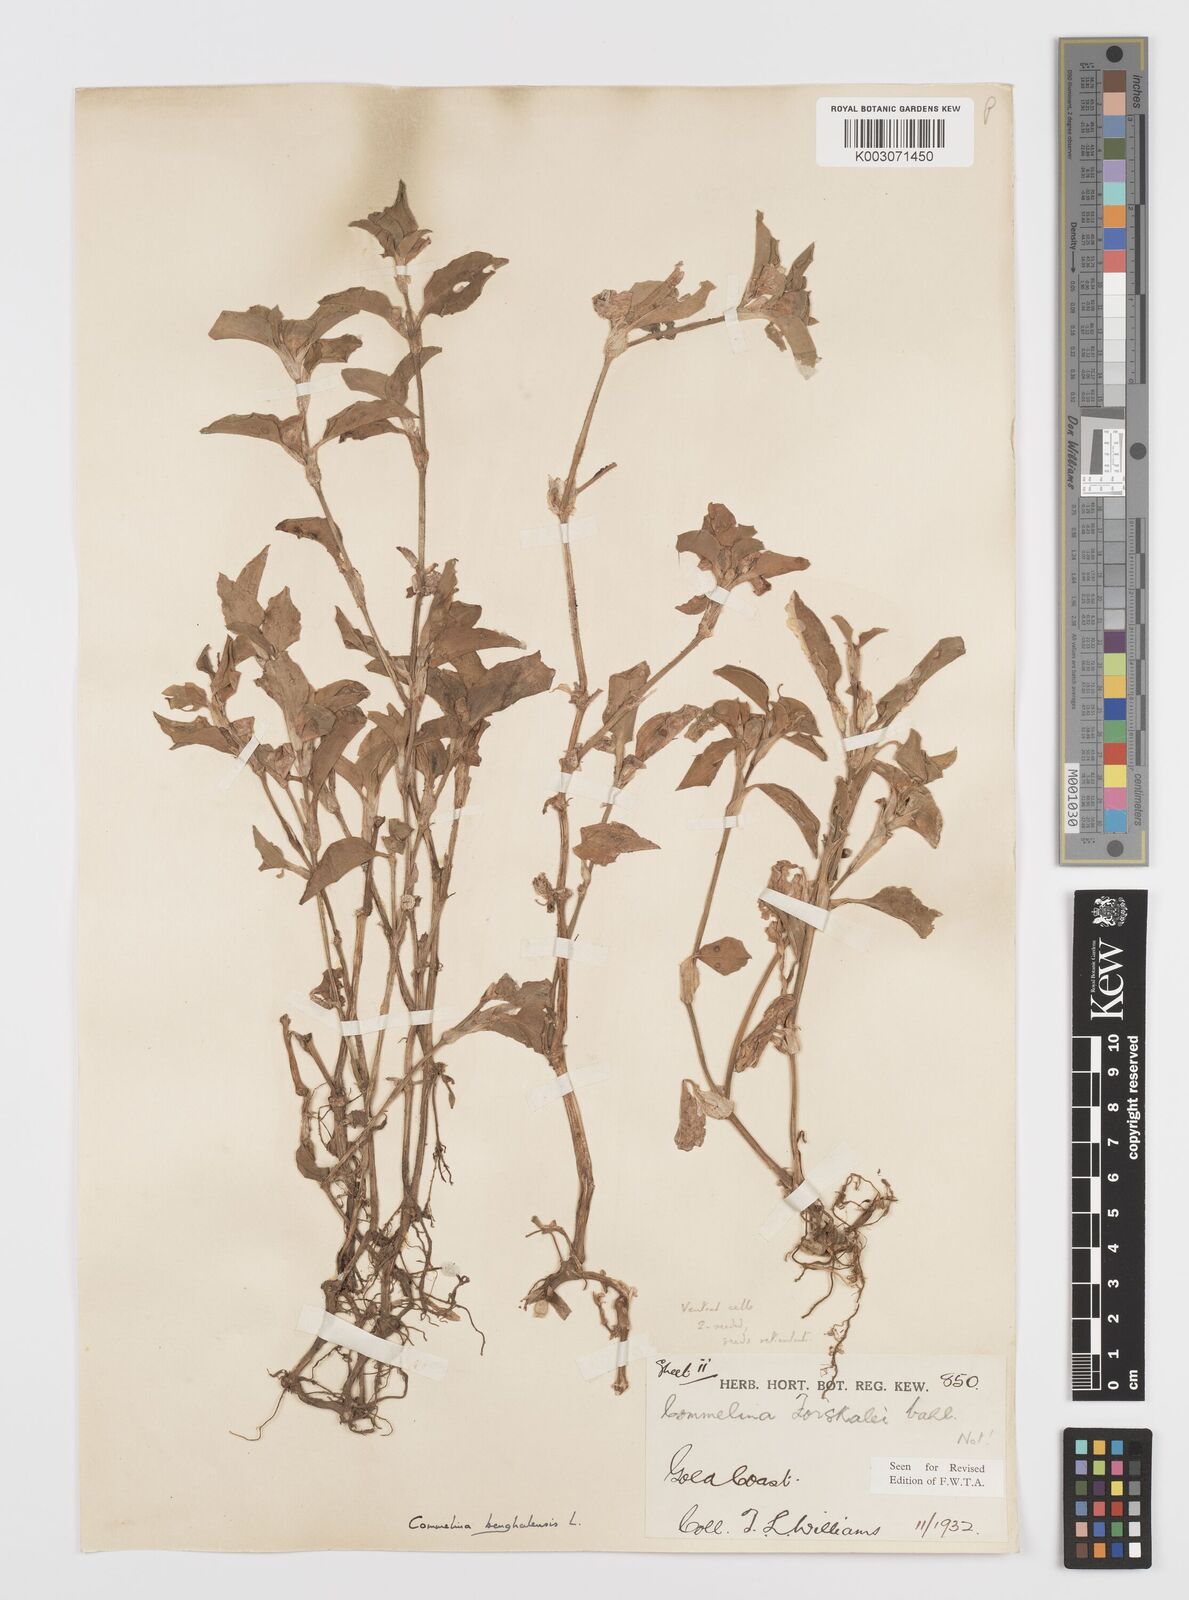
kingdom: Plantae
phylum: Tracheophyta
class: Liliopsida
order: Commelinales
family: Commelinaceae
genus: Commelina
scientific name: Commelina benghalensis
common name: Jio
